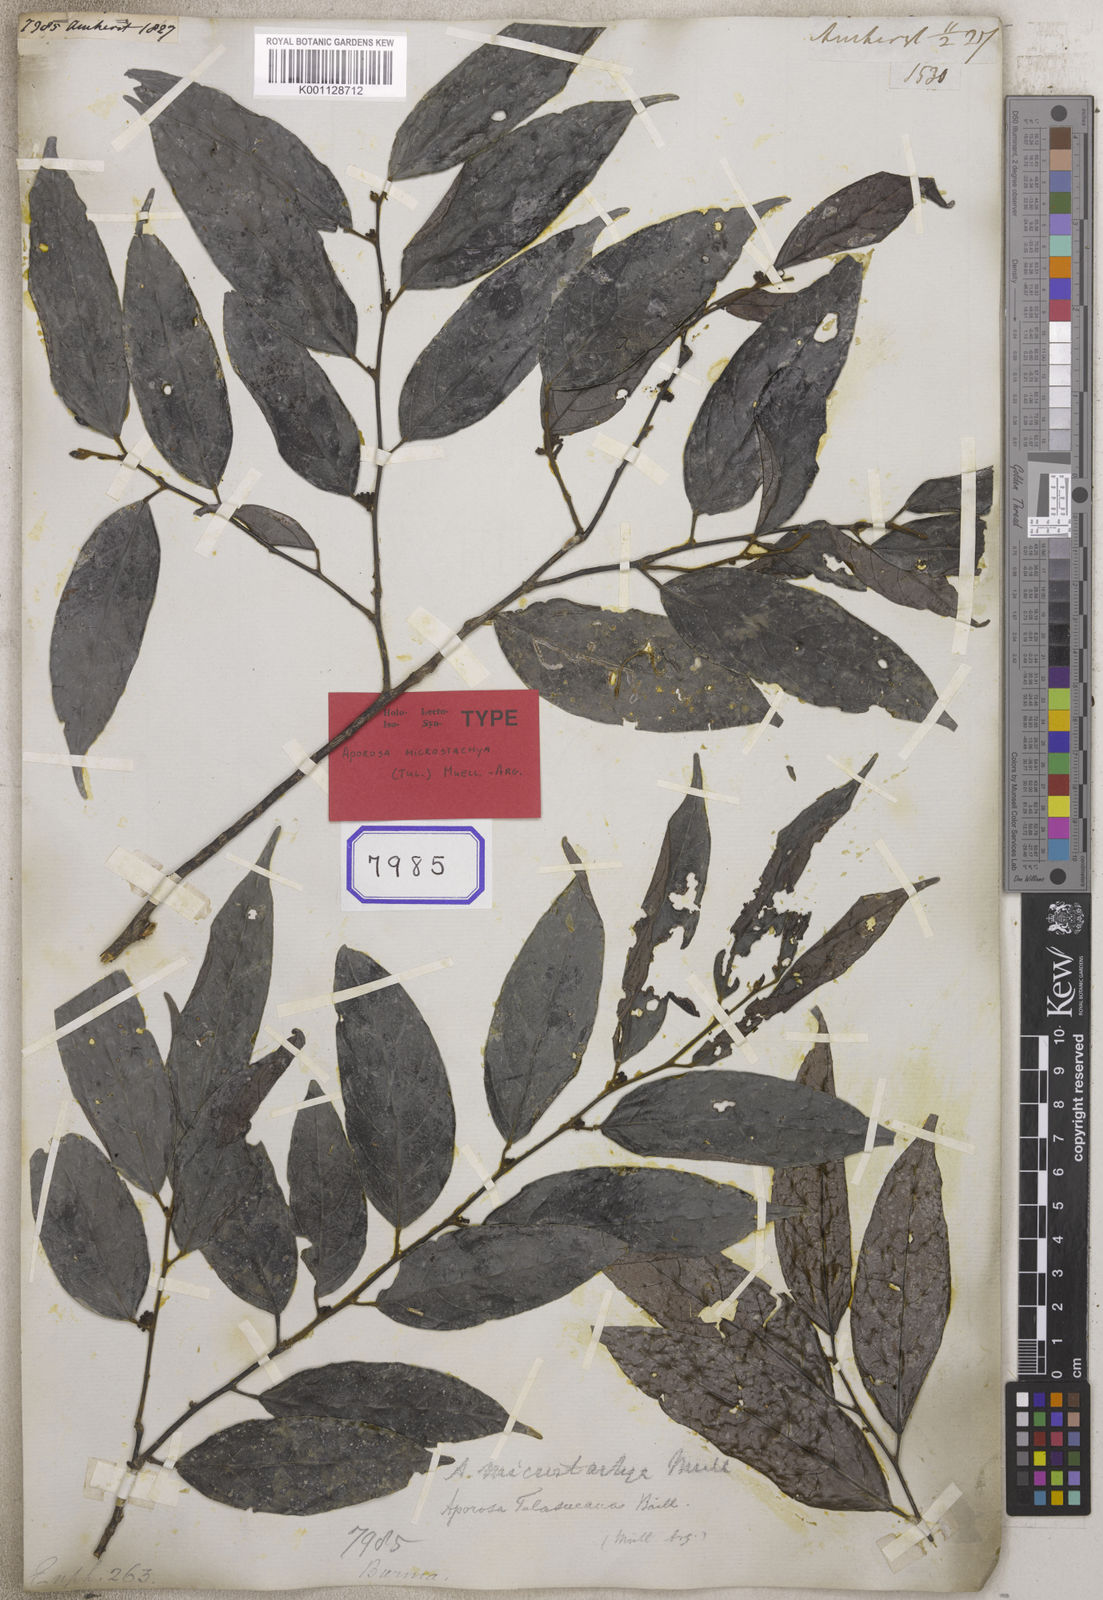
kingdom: Plantae
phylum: Tracheophyta
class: Magnoliopsida
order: Malpighiales
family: Euphorbiaceae
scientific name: Euphorbiaceae
